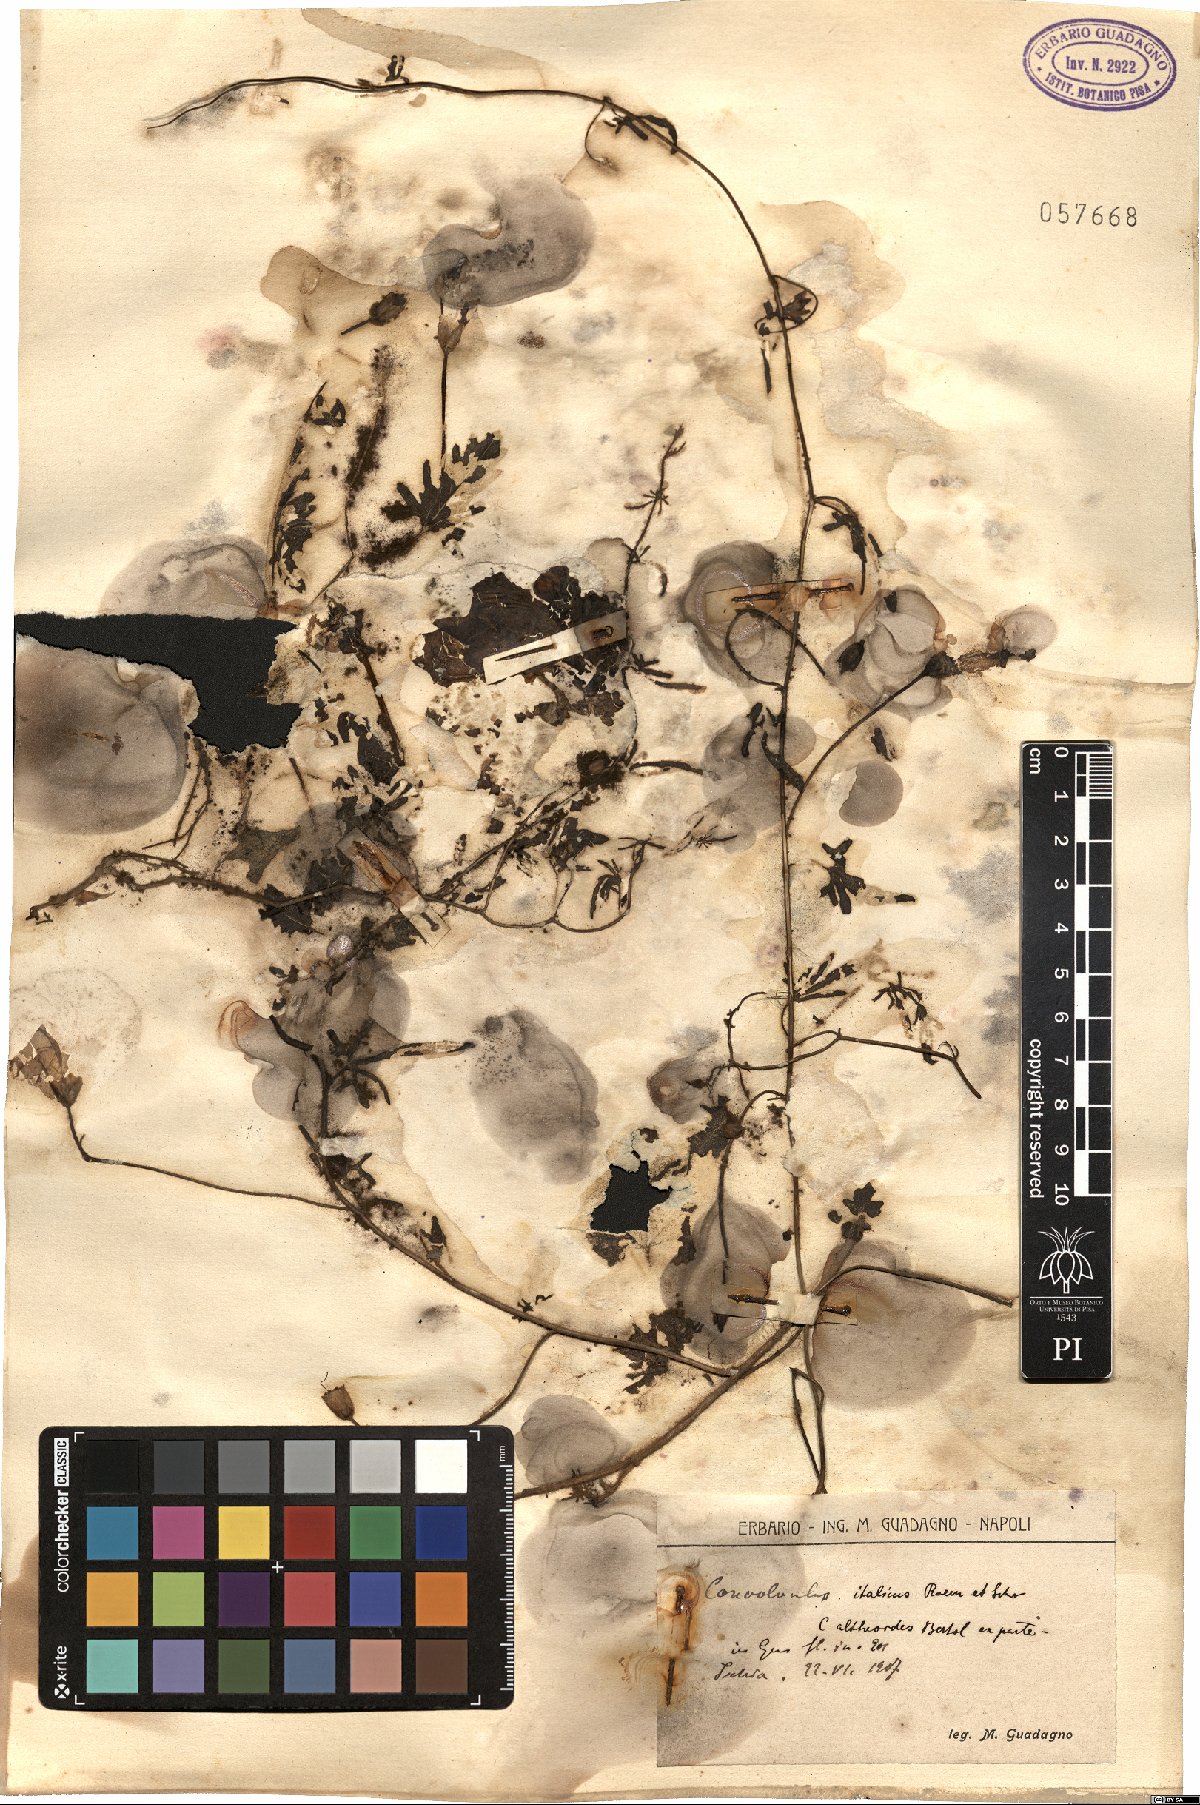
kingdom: Plantae
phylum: Tracheophyta
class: Magnoliopsida
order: Solanales
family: Convolvulaceae
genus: Convolvulus
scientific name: Convolvulus althaeoides
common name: Mallow bindweed
